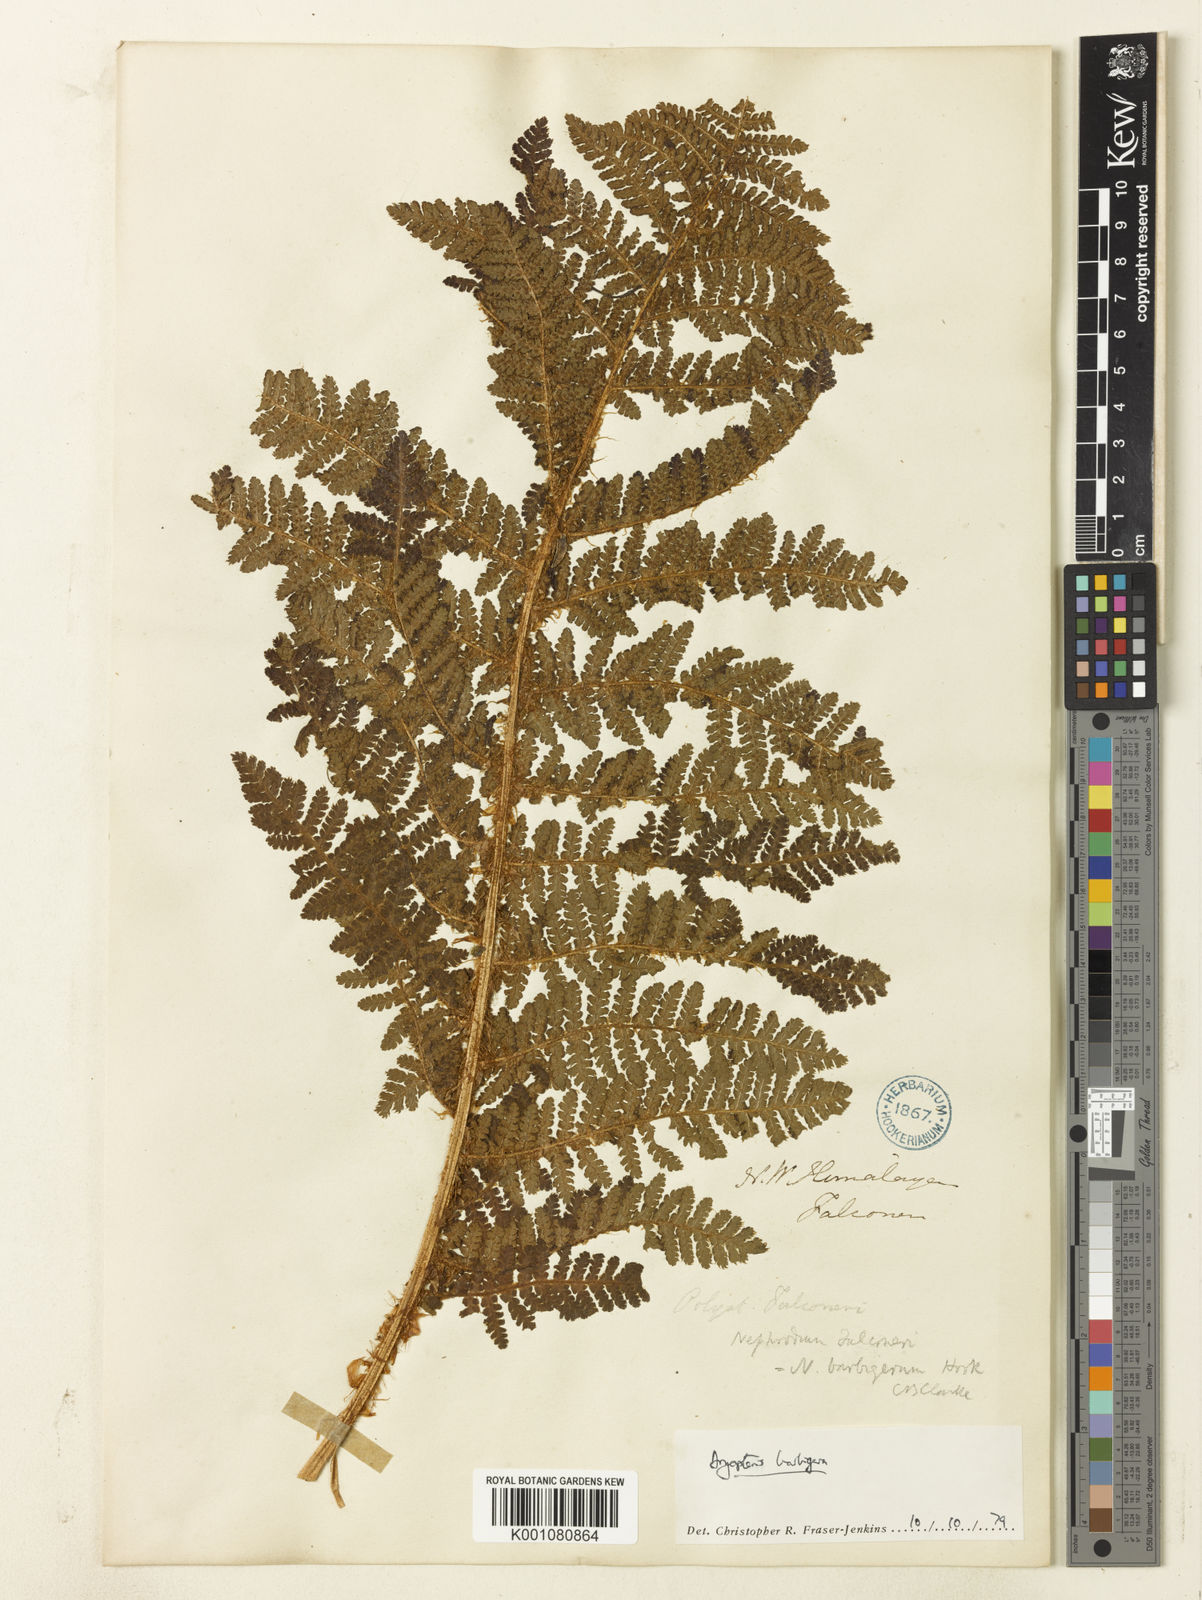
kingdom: Plantae
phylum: Tracheophyta
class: Polypodiopsida
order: Polypodiales
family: Dryopteridaceae
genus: Dryopteris
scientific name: Dryopteris barbigera
